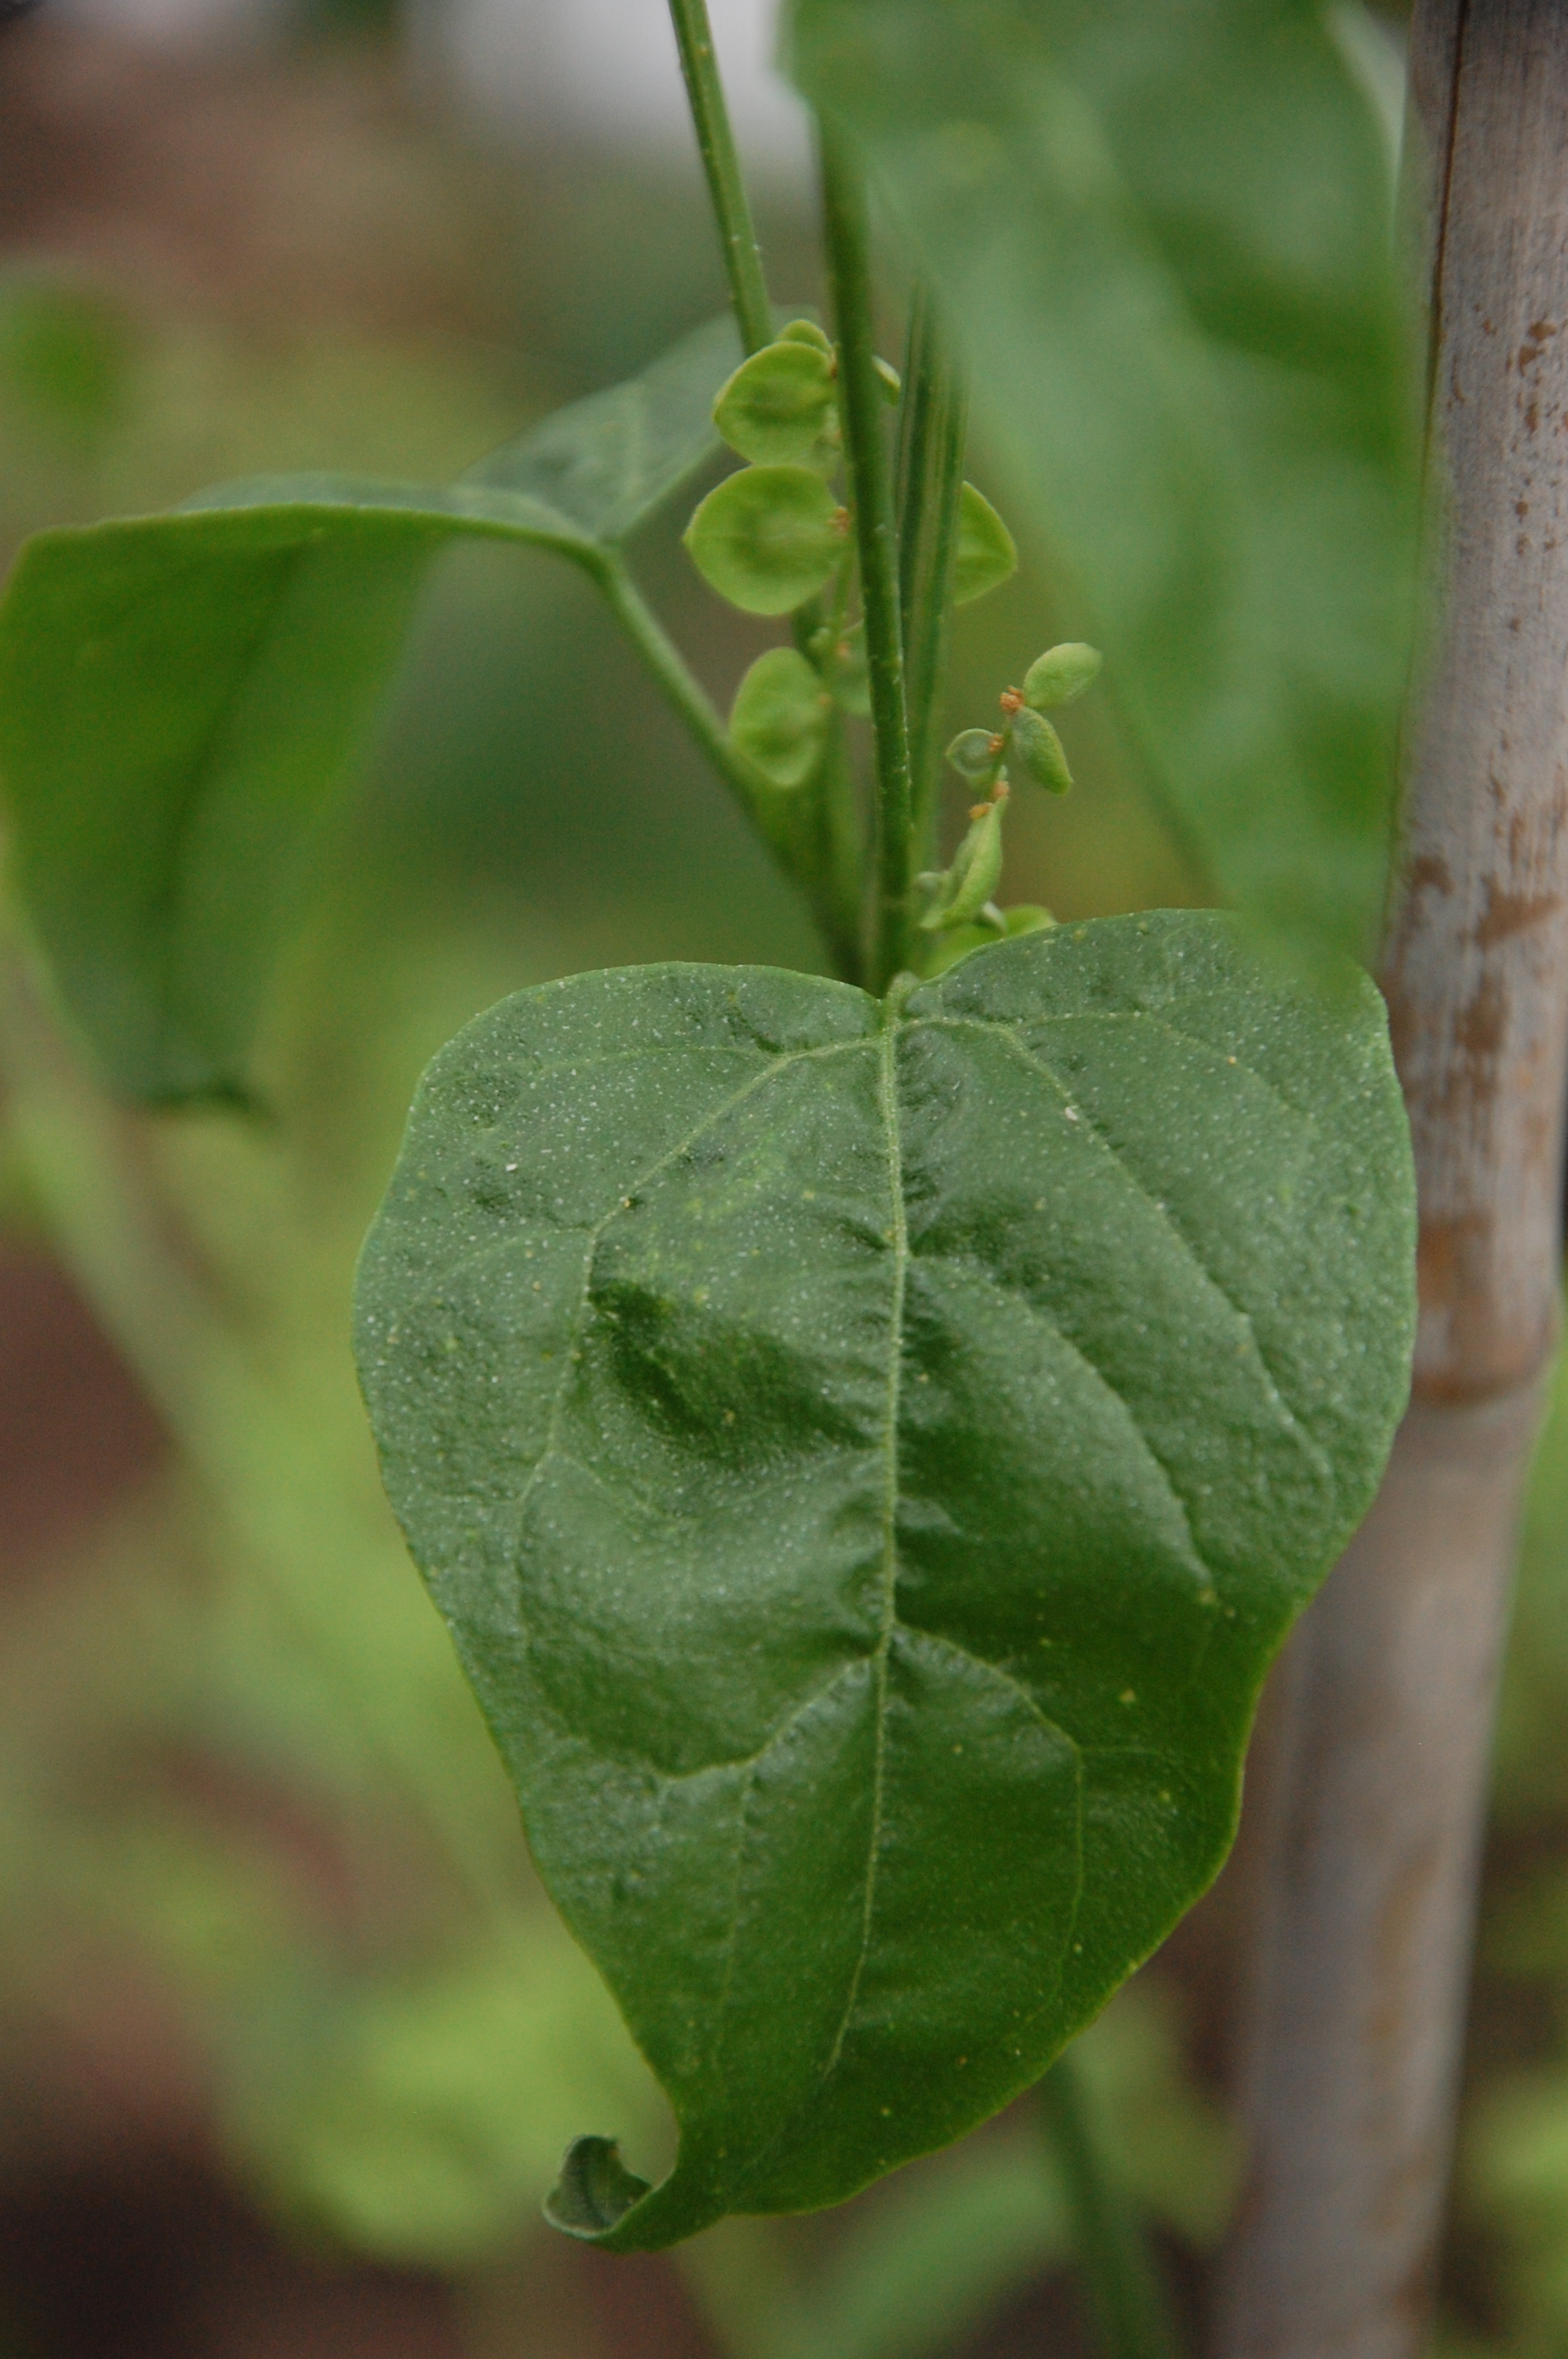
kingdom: Plantae
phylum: Tracheophyta
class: Magnoliopsida
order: Caryophyllales
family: Amaranthaceae
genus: Atriplex
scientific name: Atriplex hortensis
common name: Garden orache
